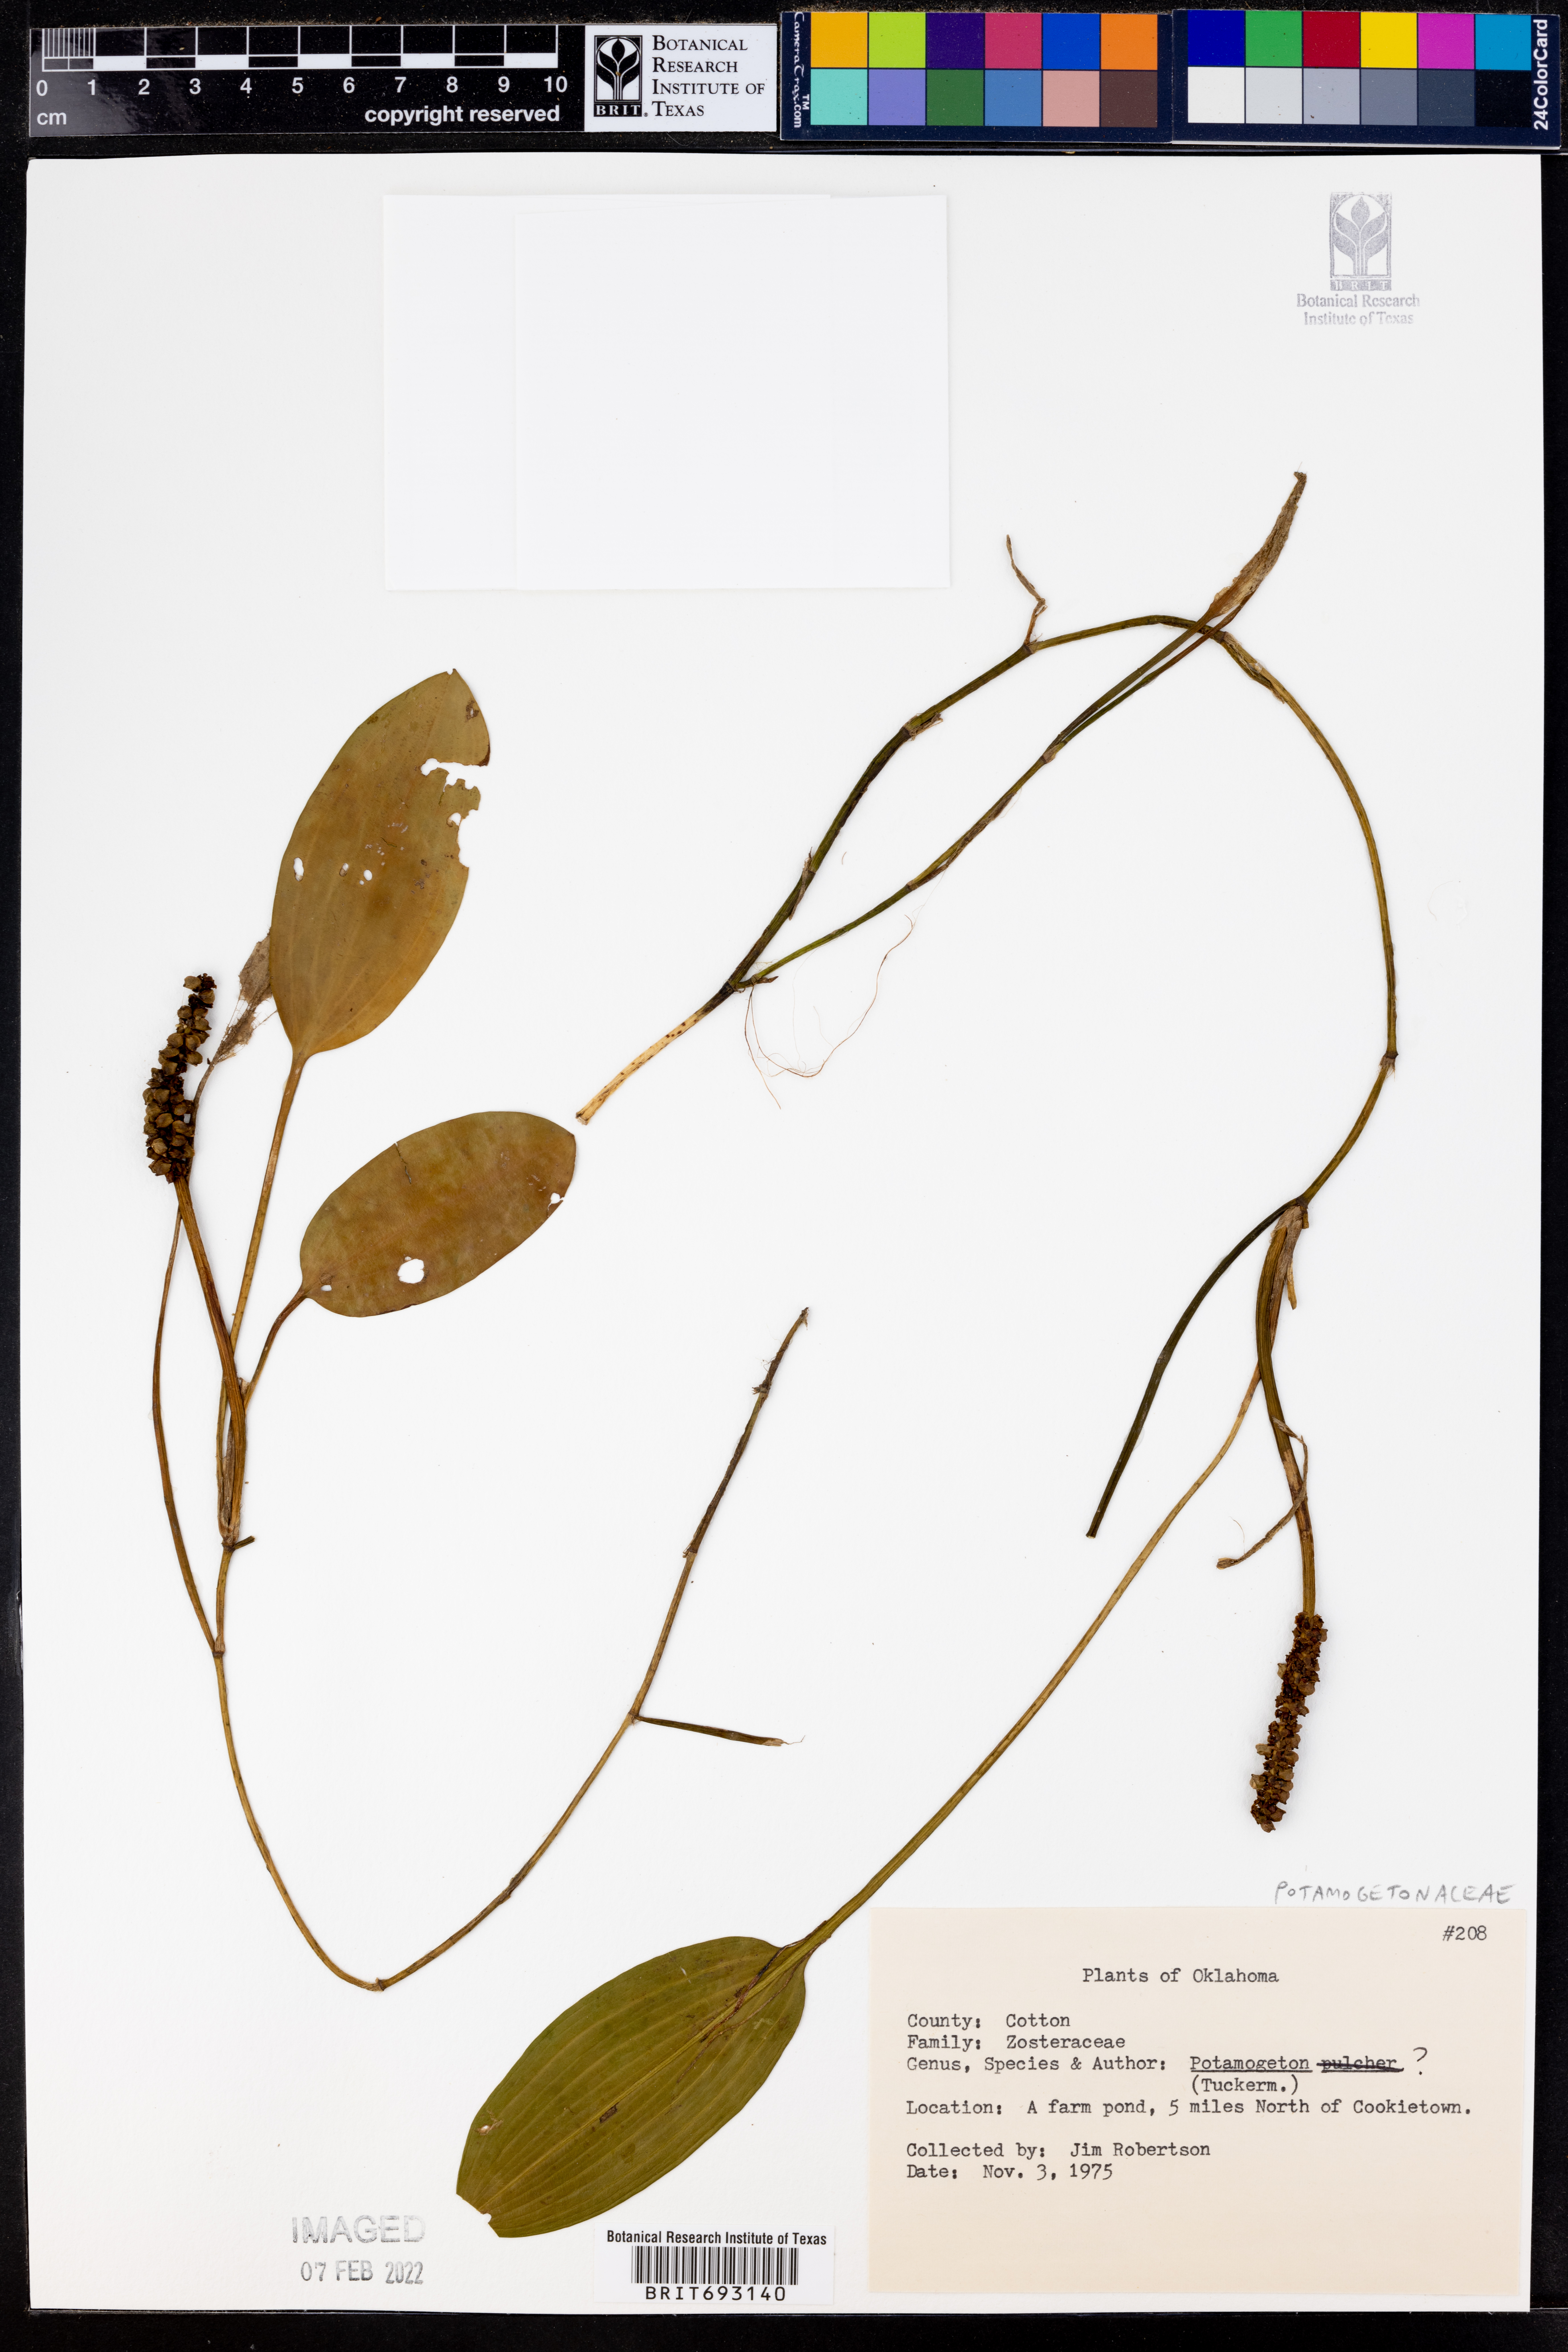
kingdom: Plantae
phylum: Tracheophyta
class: Liliopsida
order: Alismatales
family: Potamogetonaceae
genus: Potamogeton
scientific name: Potamogeton
